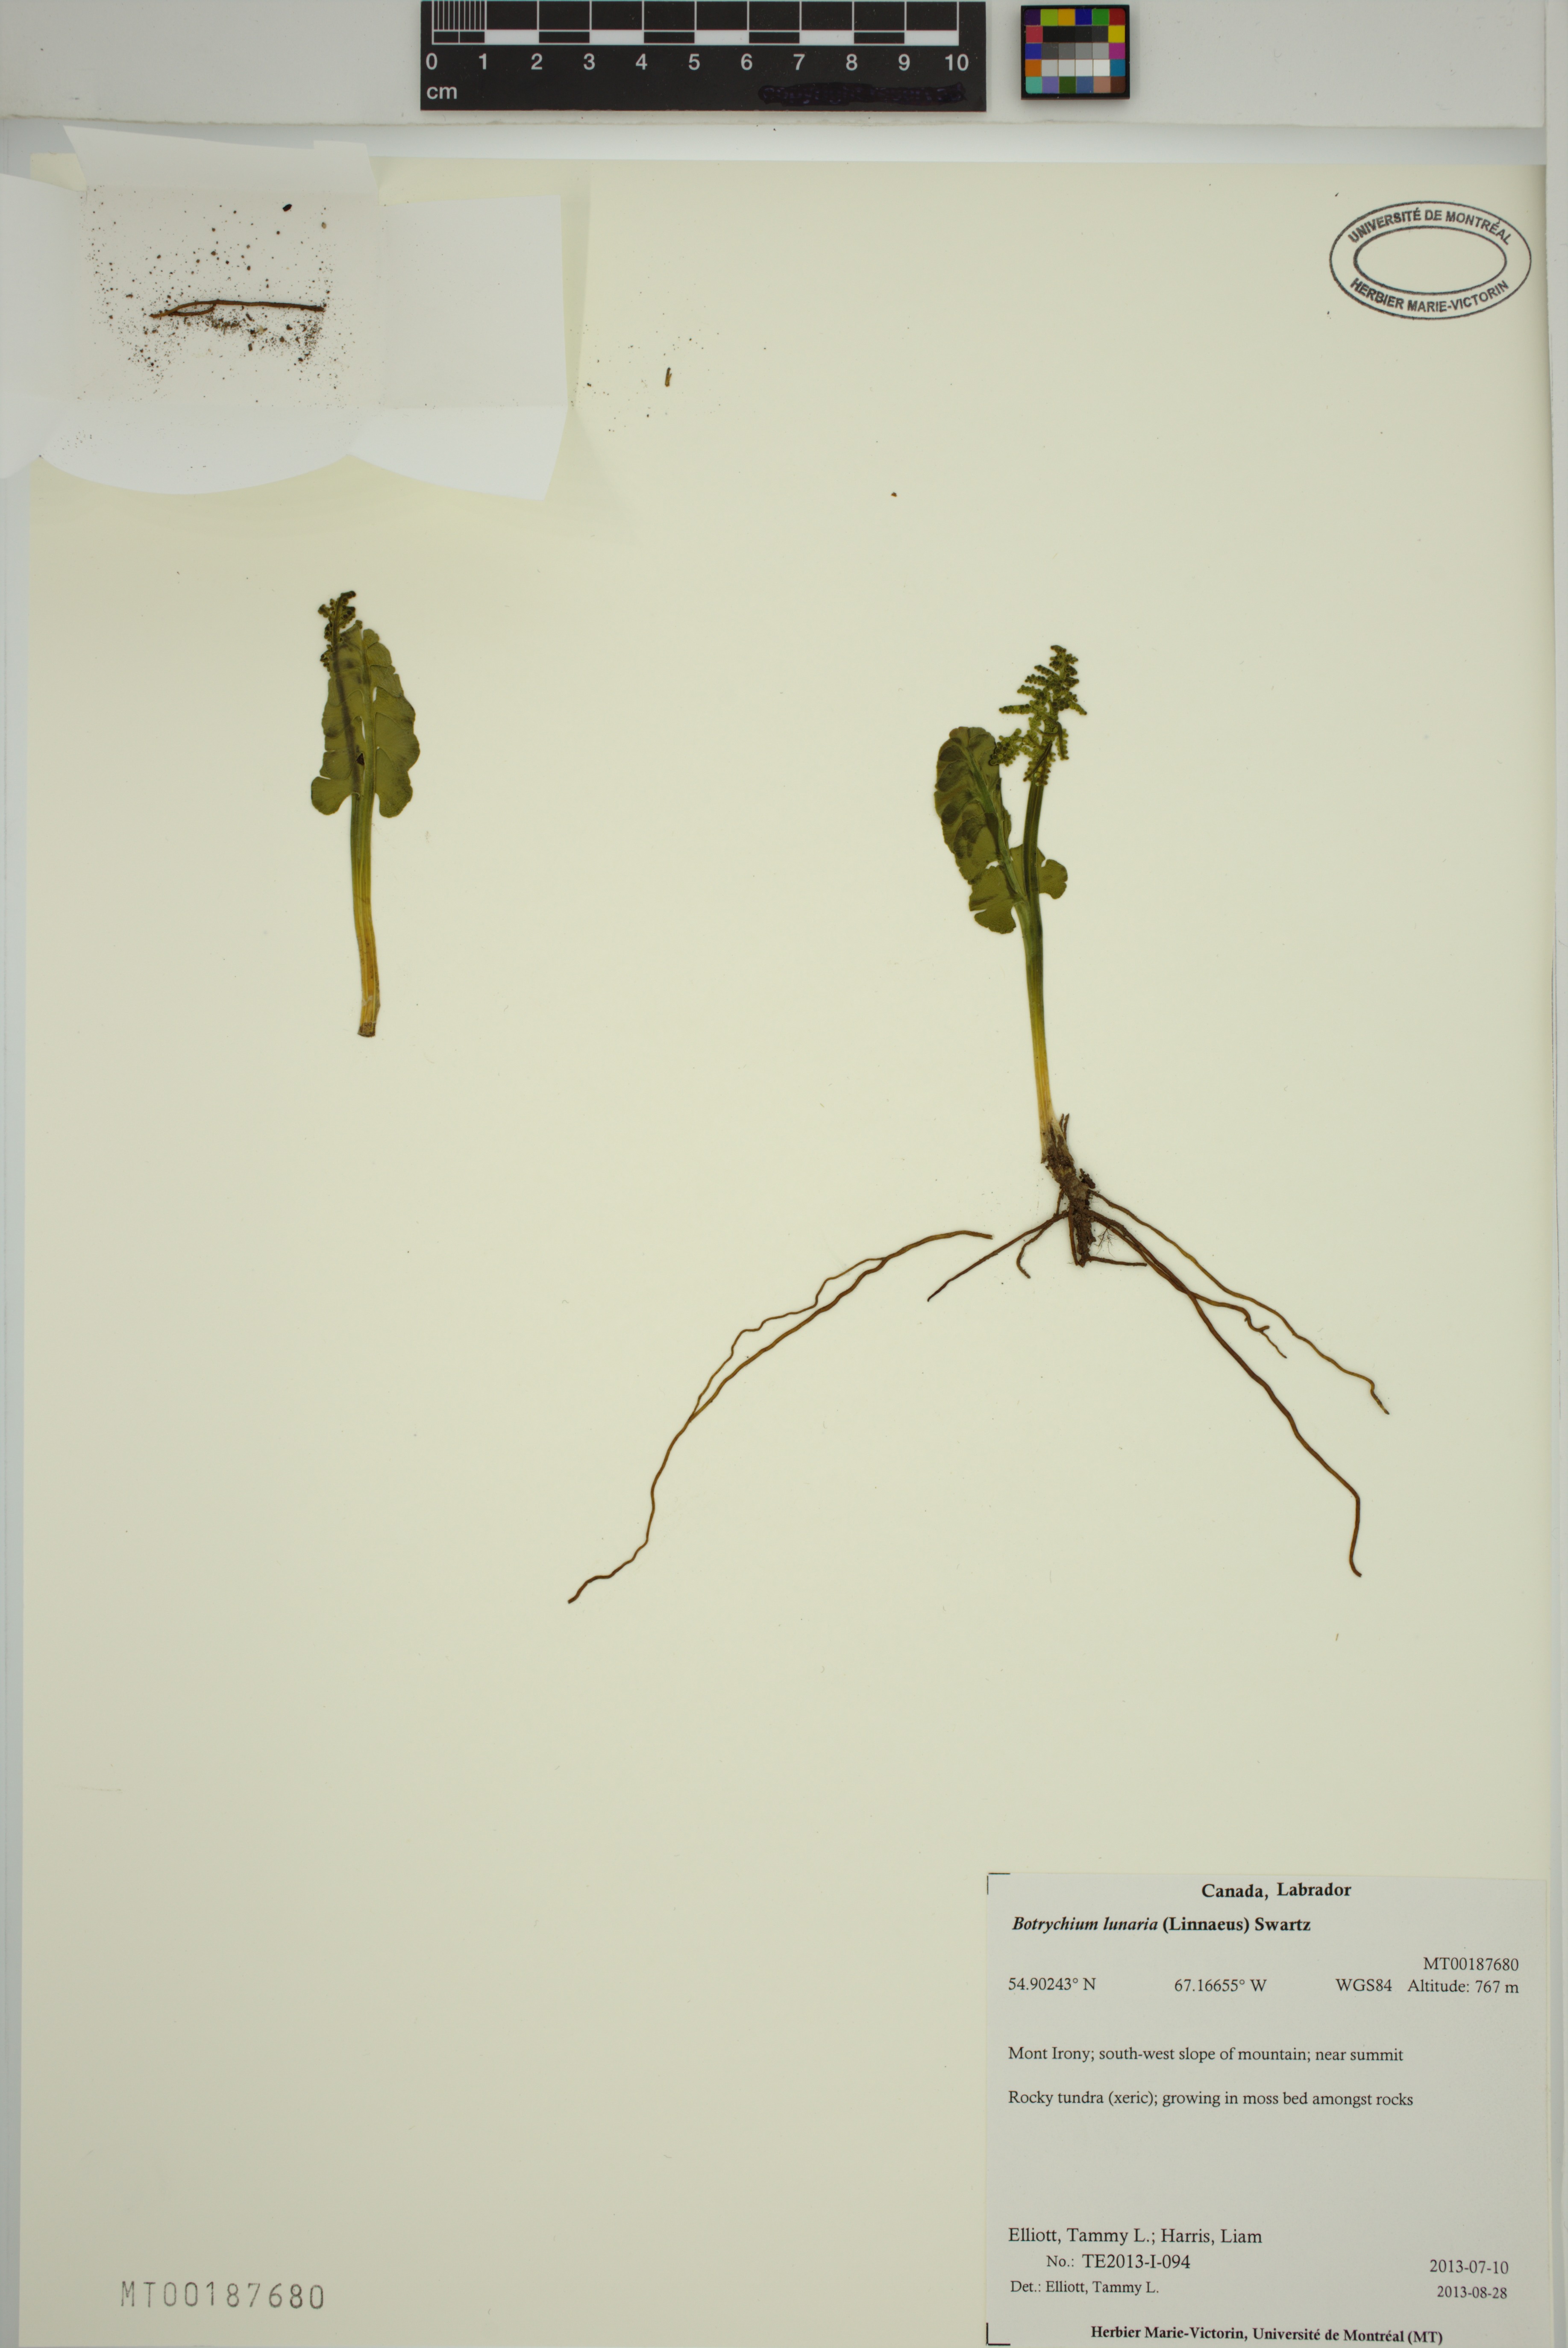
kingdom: Plantae
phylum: Tracheophyta
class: Polypodiopsida
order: Ophioglossales
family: Ophioglossaceae
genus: Botrychium
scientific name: Botrychium lunaria
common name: Moonwort
